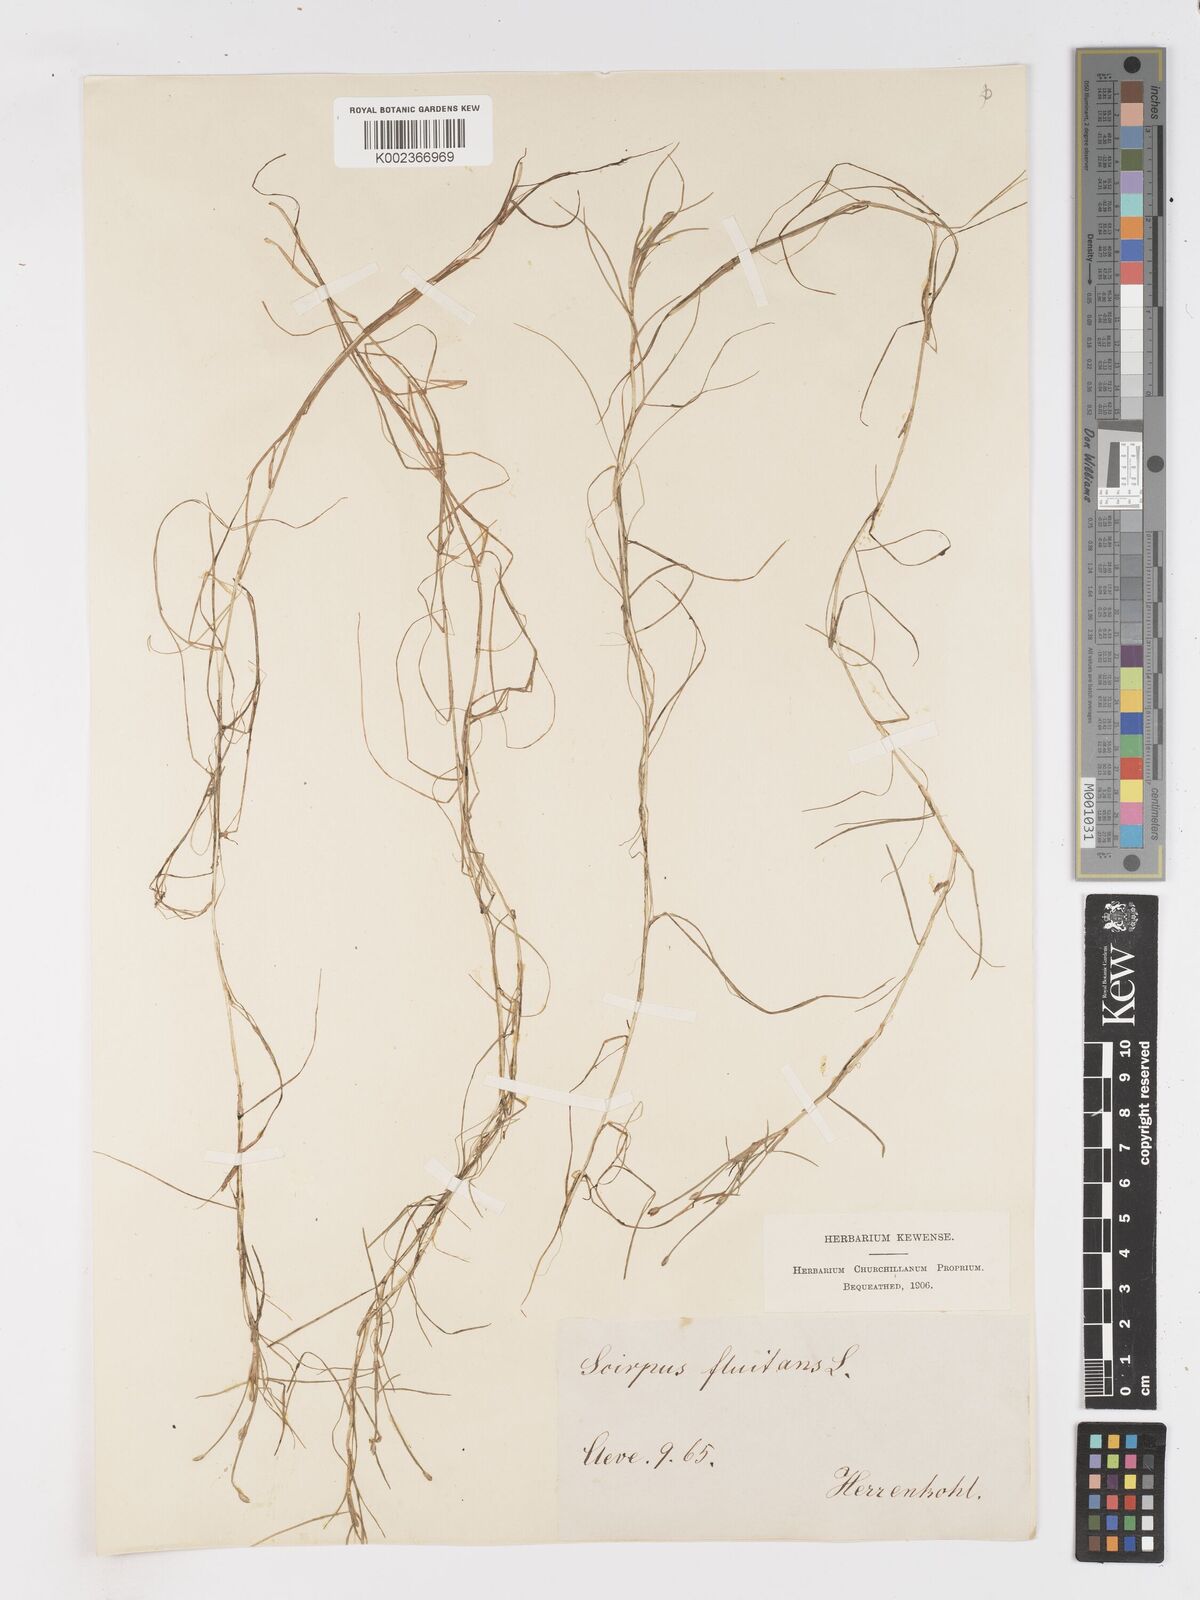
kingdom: Plantae
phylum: Tracheophyta
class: Liliopsida
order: Poales
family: Cyperaceae
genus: Isolepis
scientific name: Isolepis fluitans
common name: Floating club-rush
